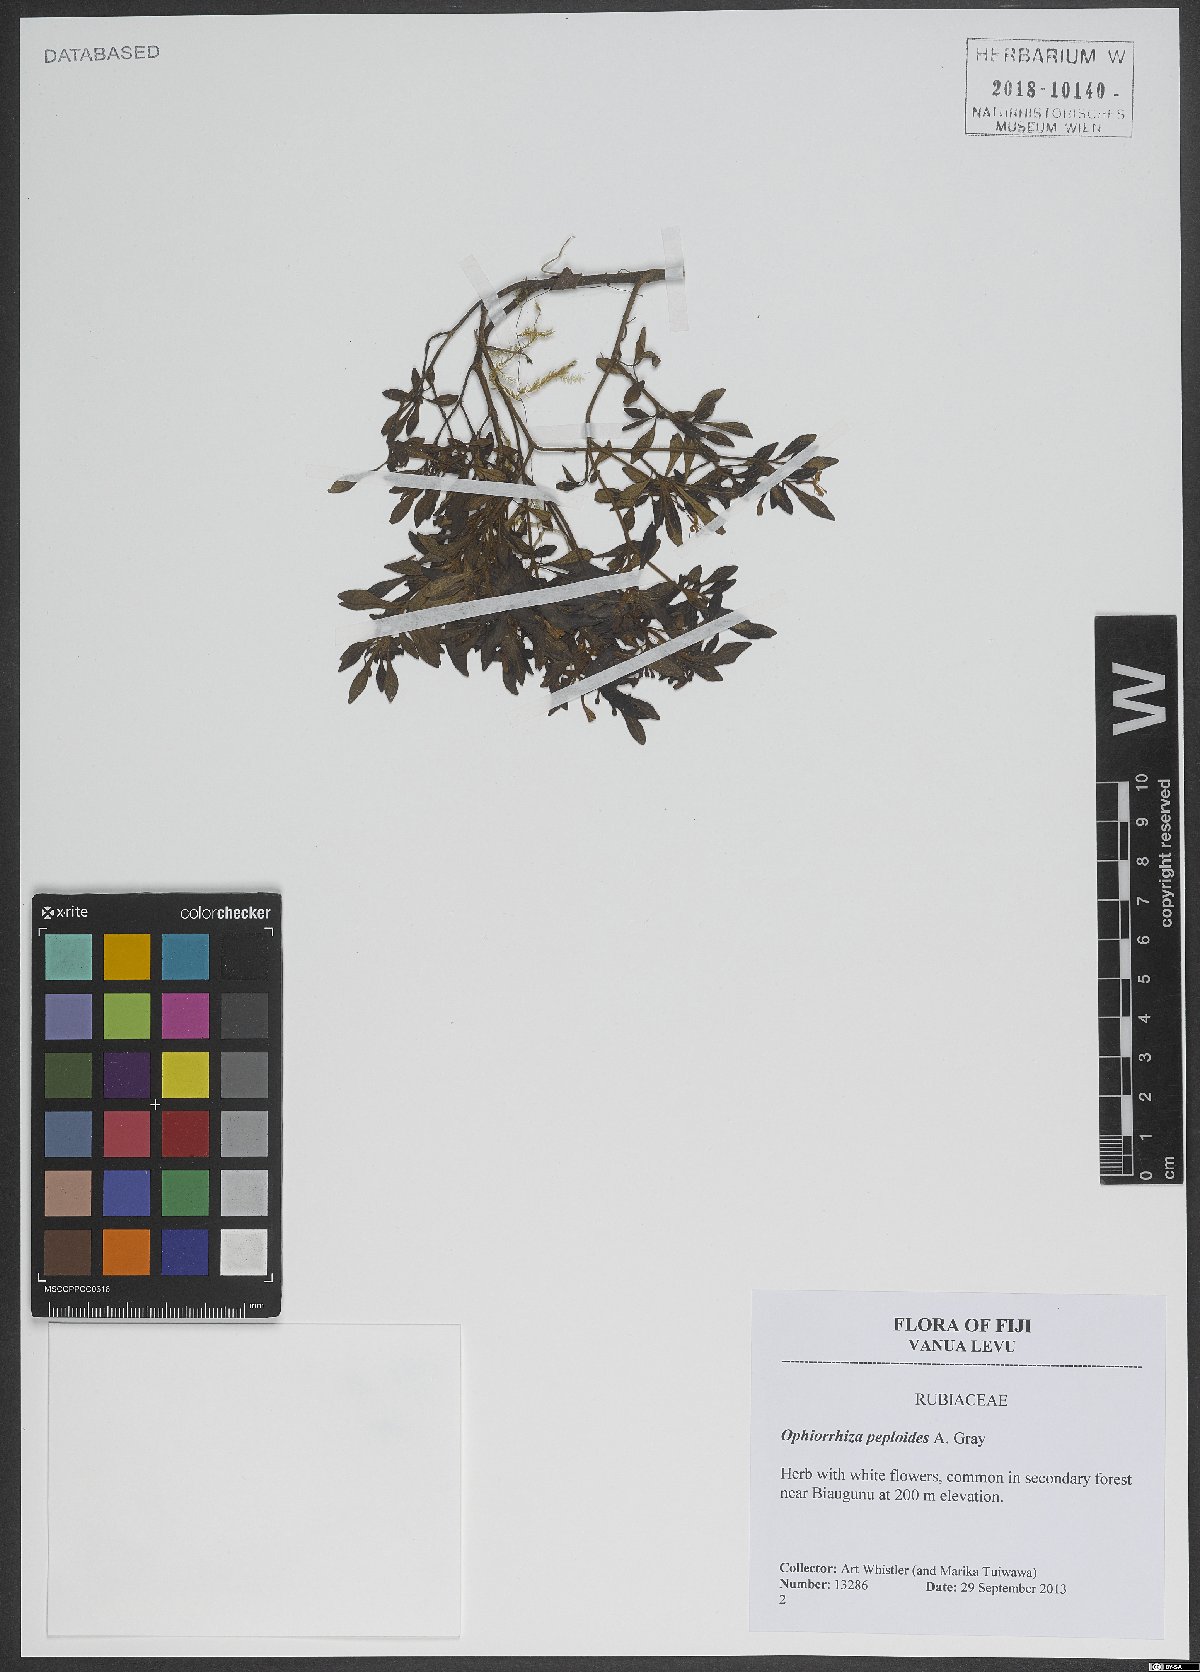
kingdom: Plantae
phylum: Tracheophyta
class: Magnoliopsida
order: Gentianales
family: Rubiaceae
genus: Ophiorrhiza
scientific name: Ophiorrhiza peploides
